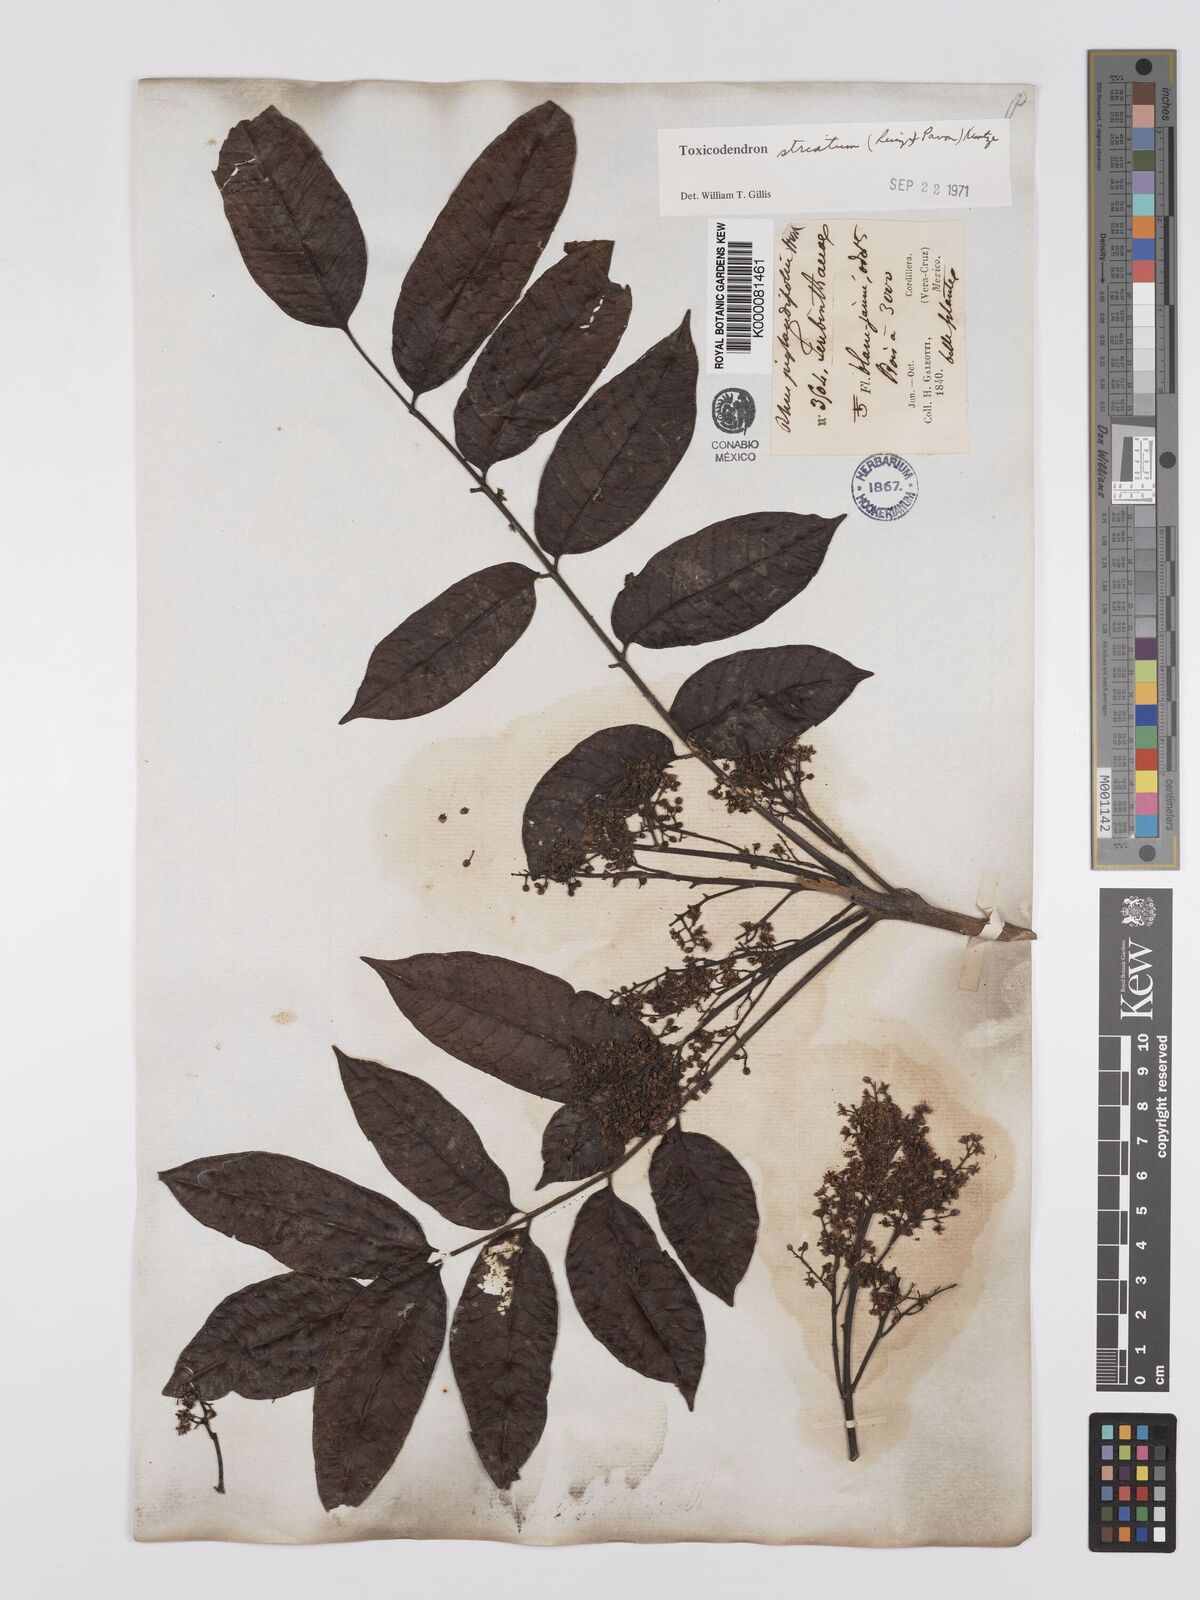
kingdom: Plantae
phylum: Tracheophyta
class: Magnoliopsida
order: Sapindales
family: Anacardiaceae
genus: Toxicodendron
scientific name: Toxicodendron striatum
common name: Sumac
